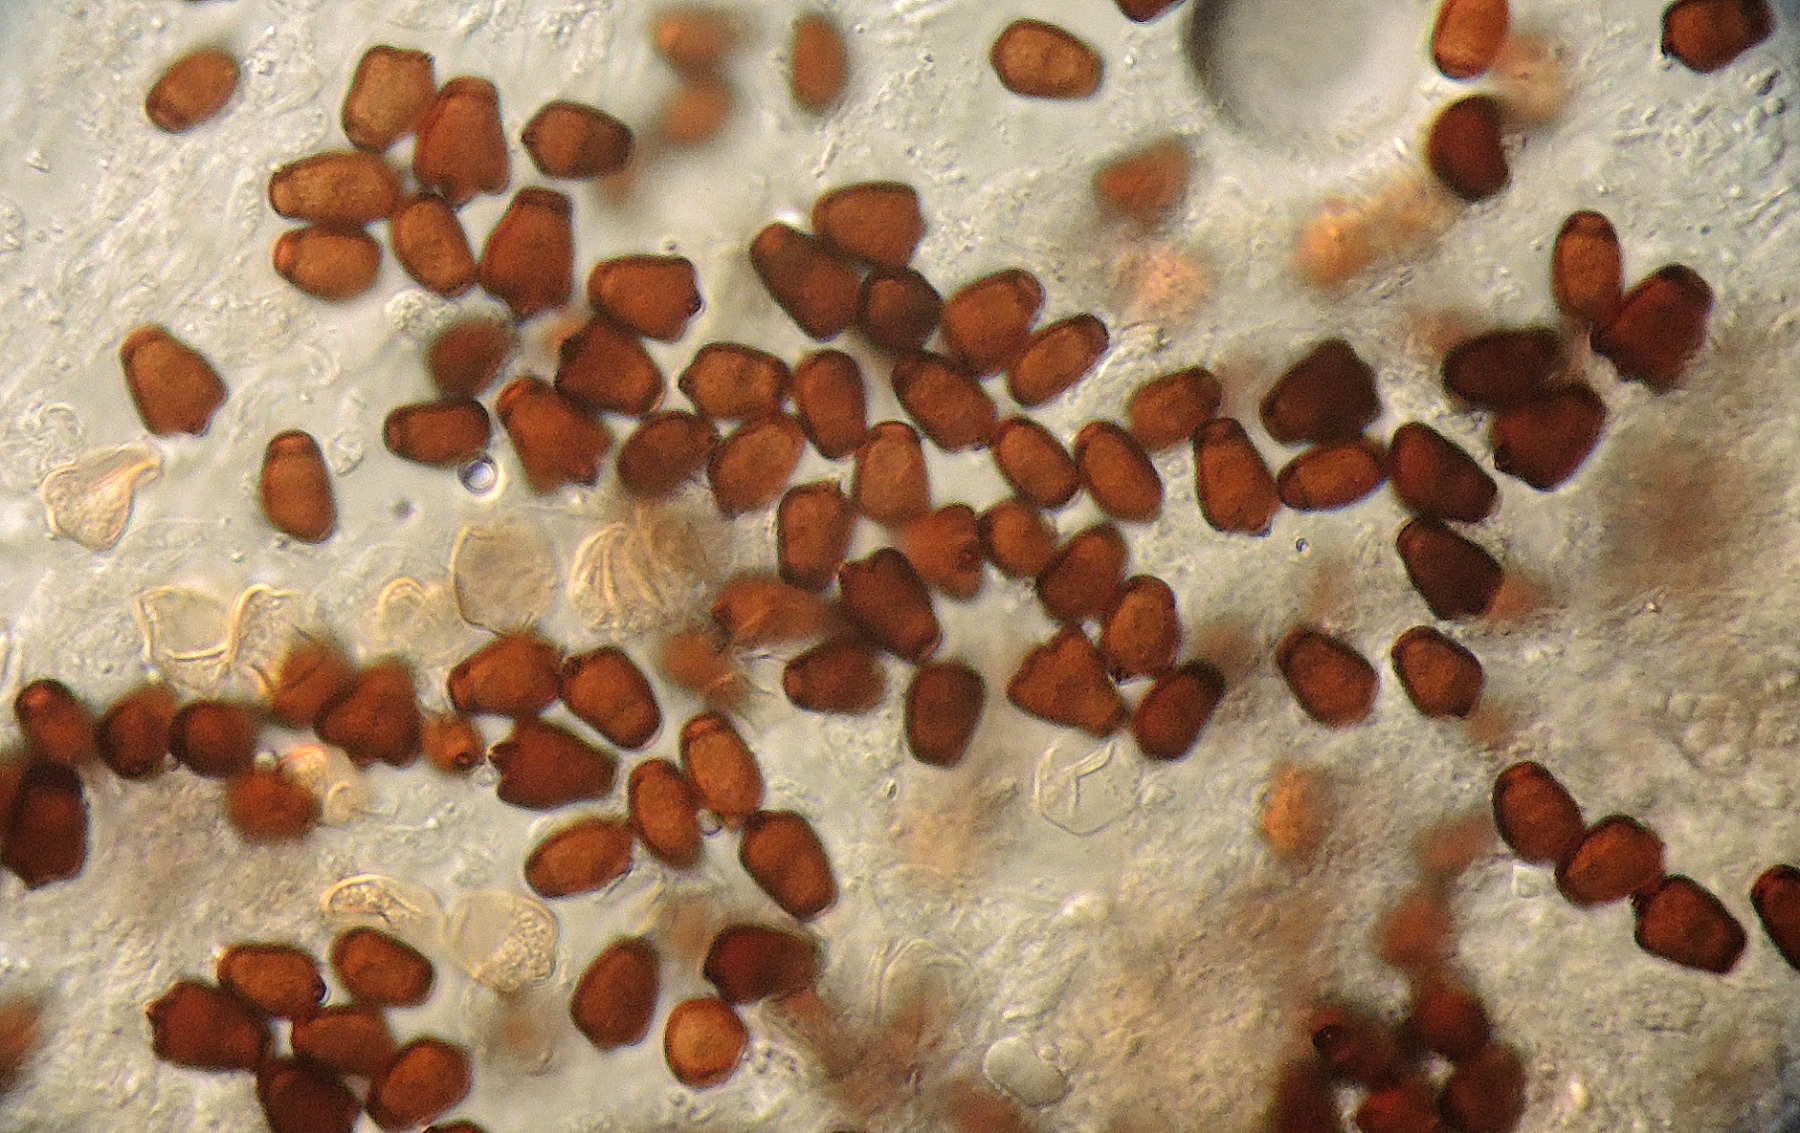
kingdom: Fungi
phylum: Basidiomycota
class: Agaricomycetes
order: Agaricales
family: Psathyrellaceae
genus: Tulosesus
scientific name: Tulosesus angulatus
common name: kul-blækhat
